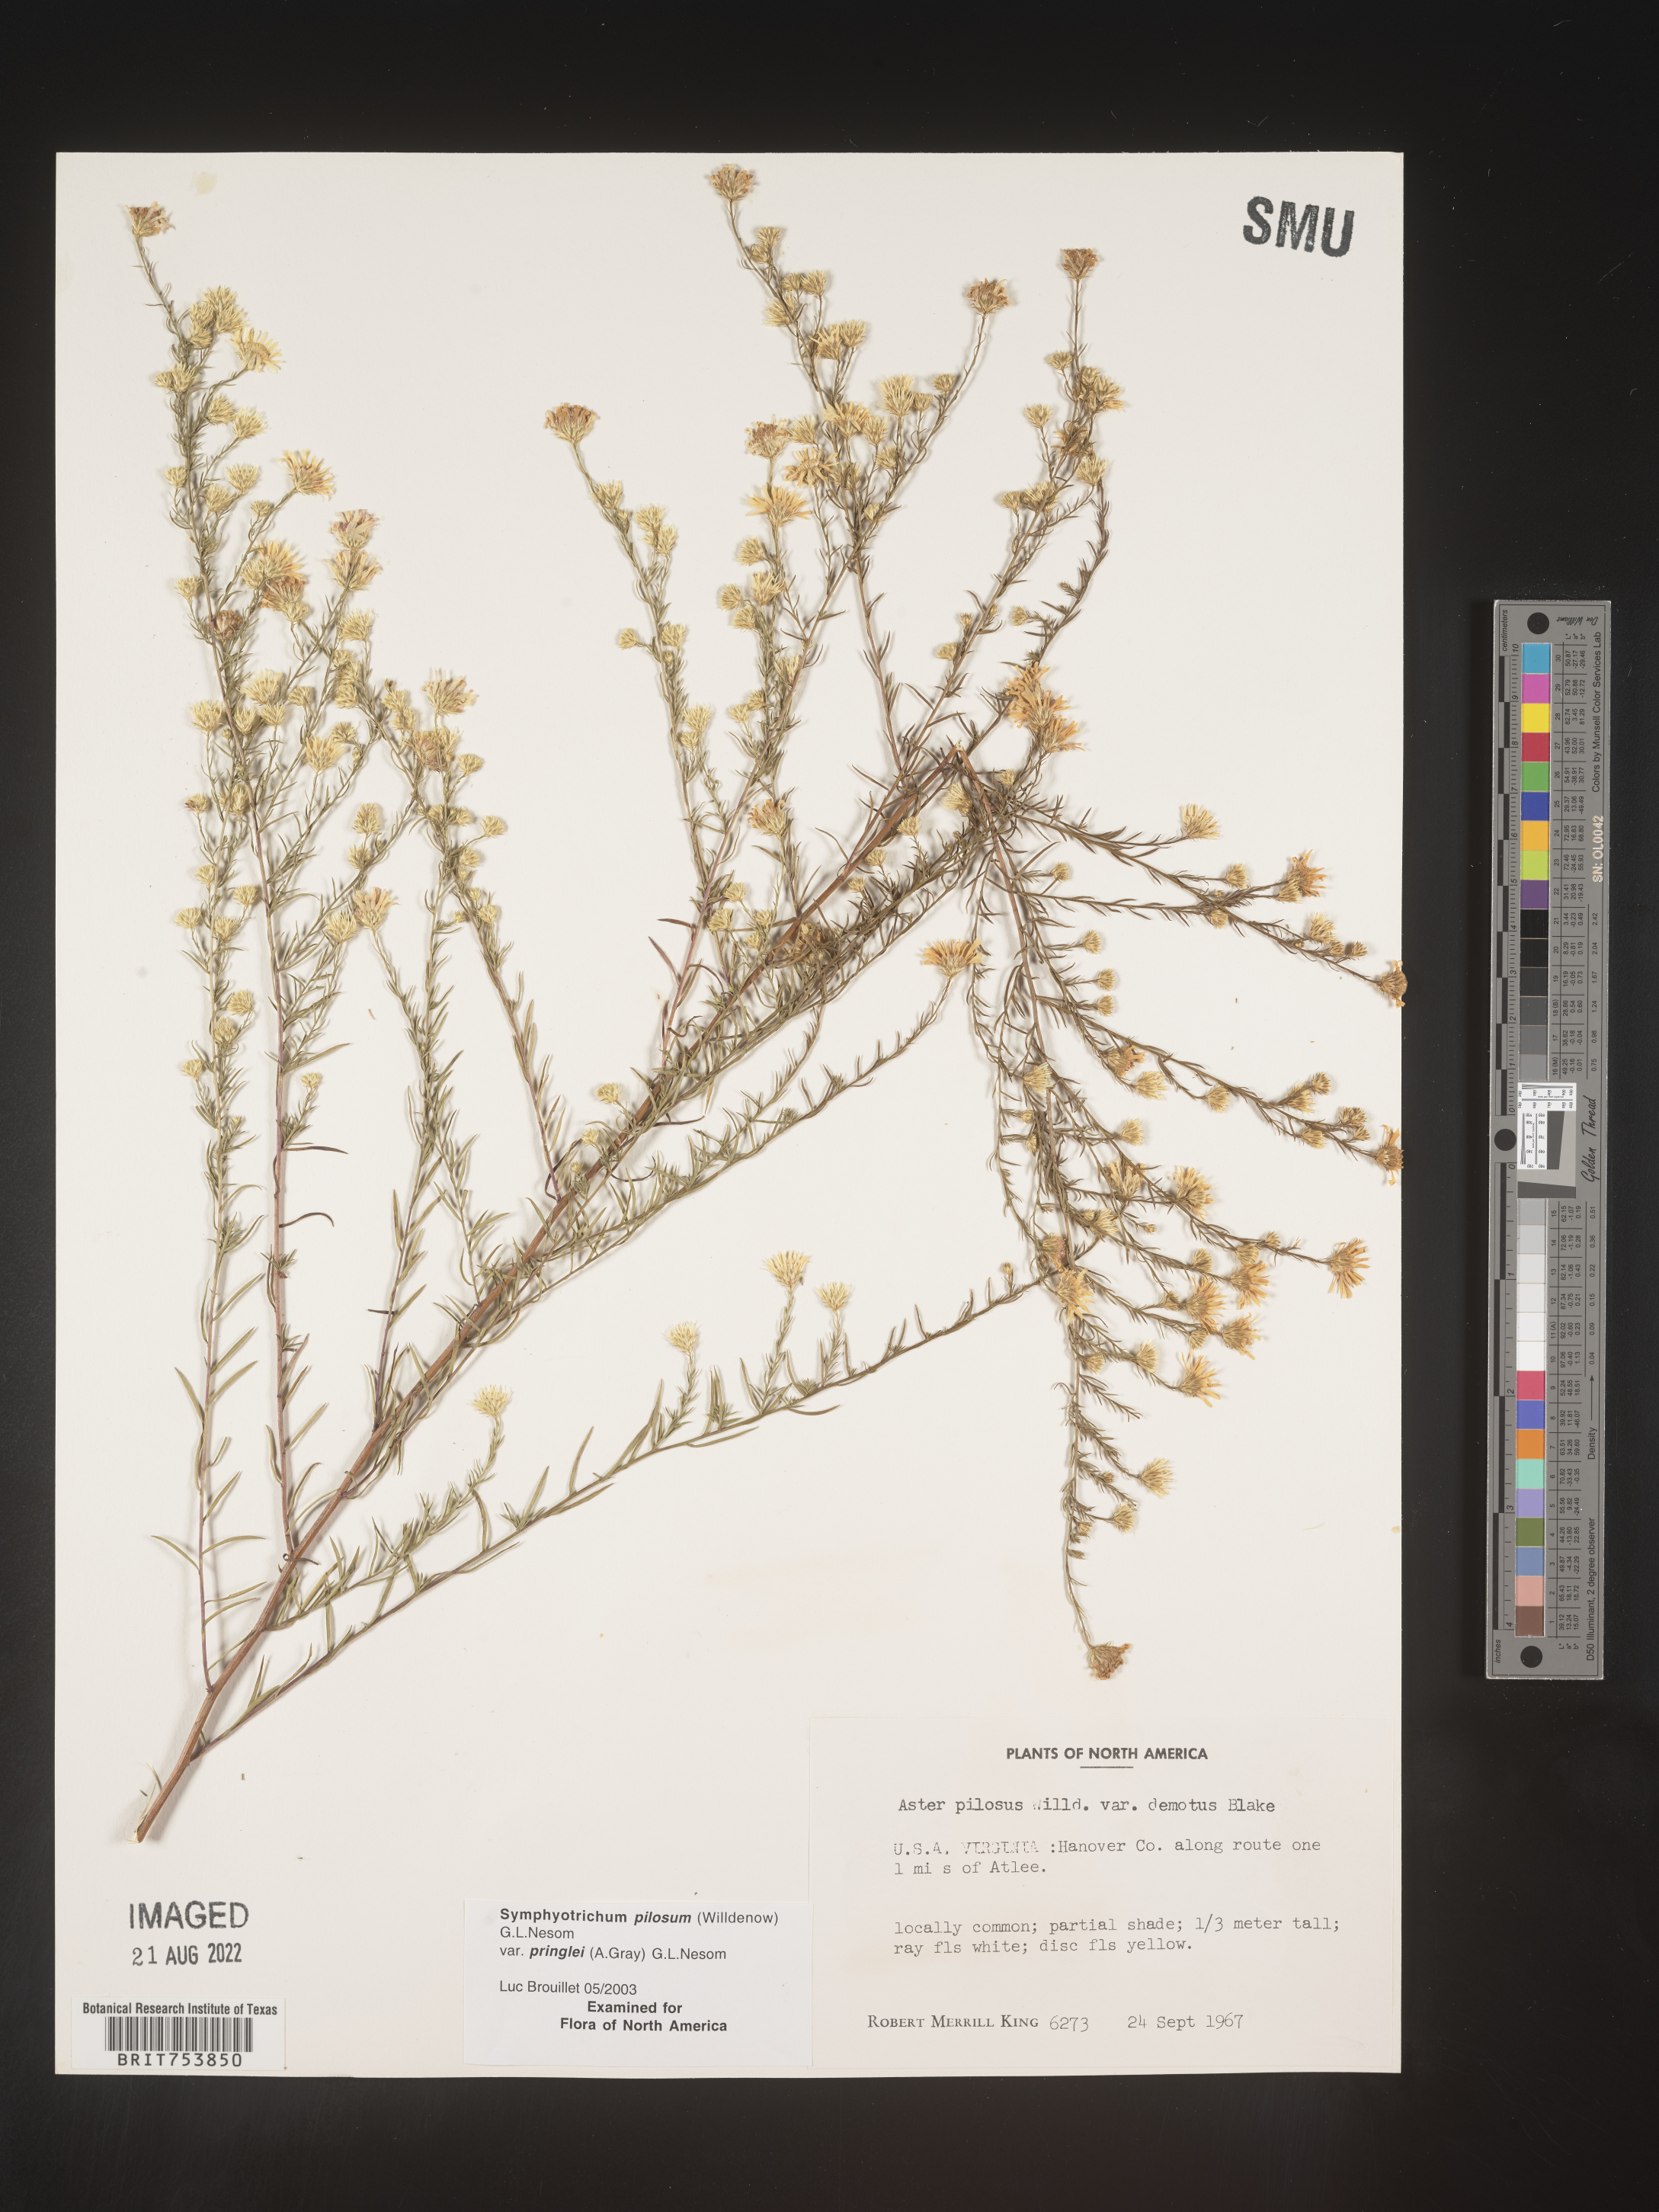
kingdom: Plantae
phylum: Tracheophyta
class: Magnoliopsida
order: Asterales
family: Asteraceae
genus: Symphyotrichum
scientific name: Symphyotrichum pilosum
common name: Awl aster
